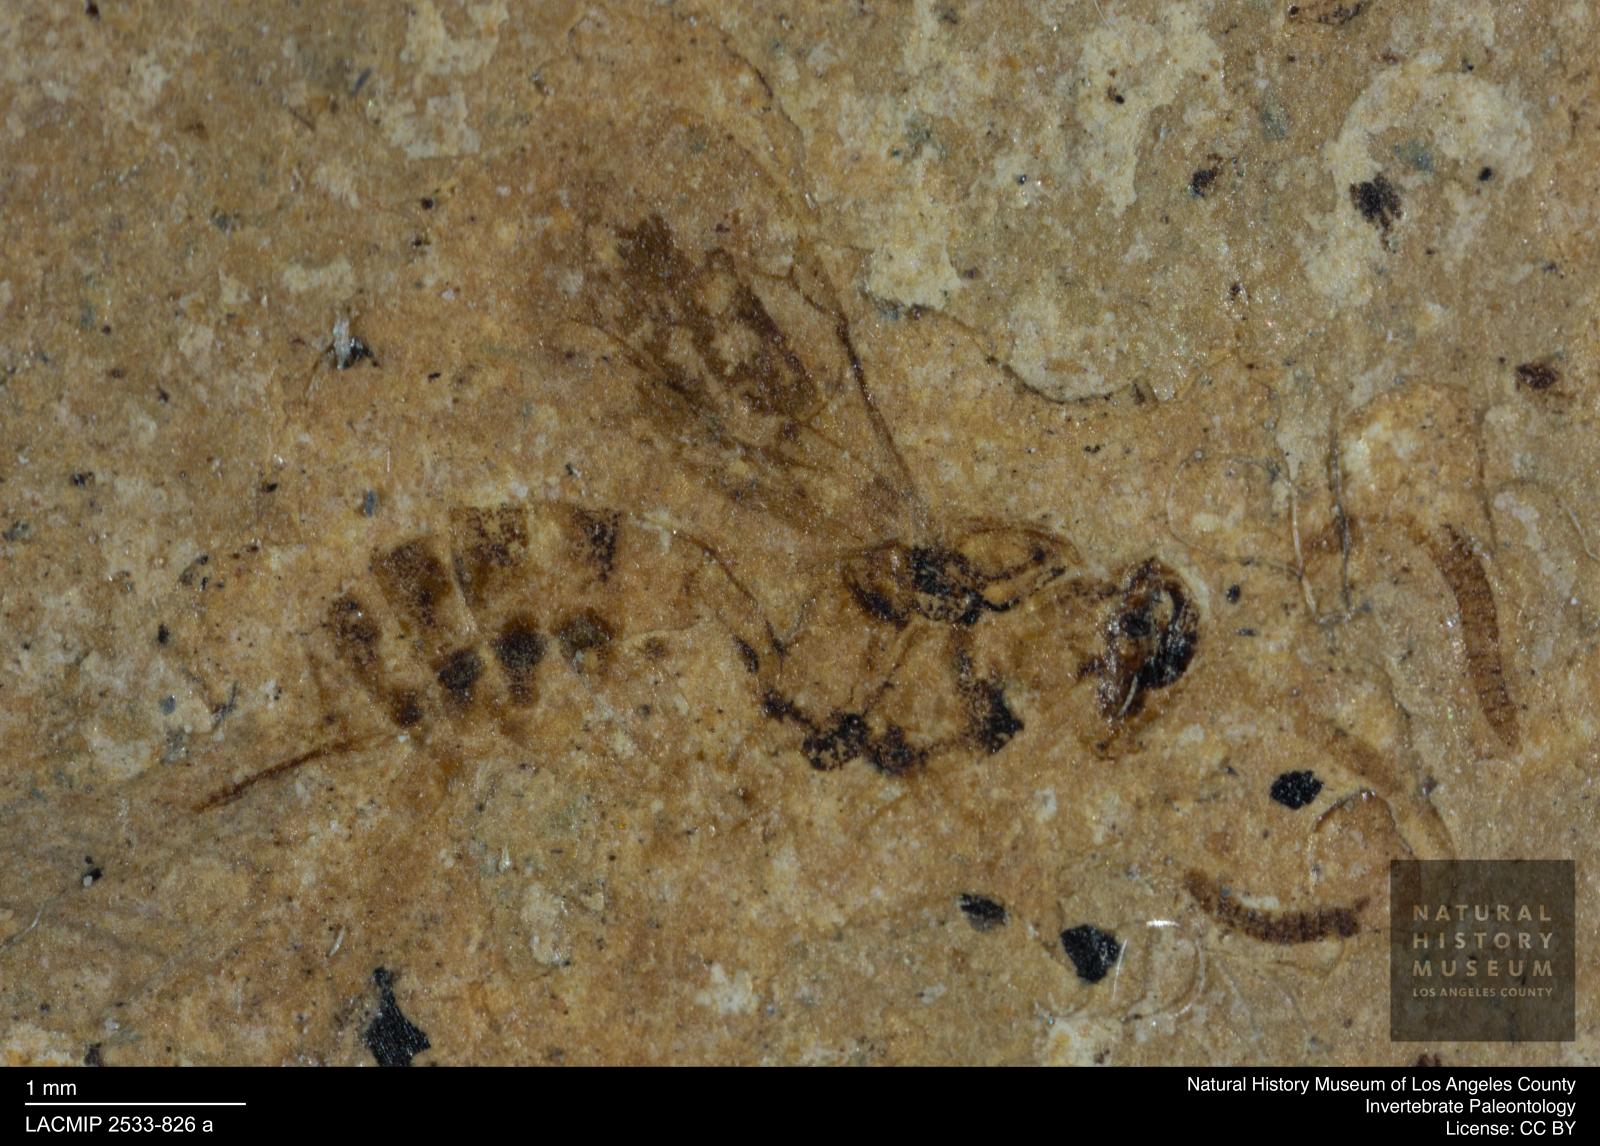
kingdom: Animalia
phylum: Arthropoda
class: Insecta
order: Hymenoptera
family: Ichneumonidae
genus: Cubocephalus
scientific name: Cubocephalus terebrator
